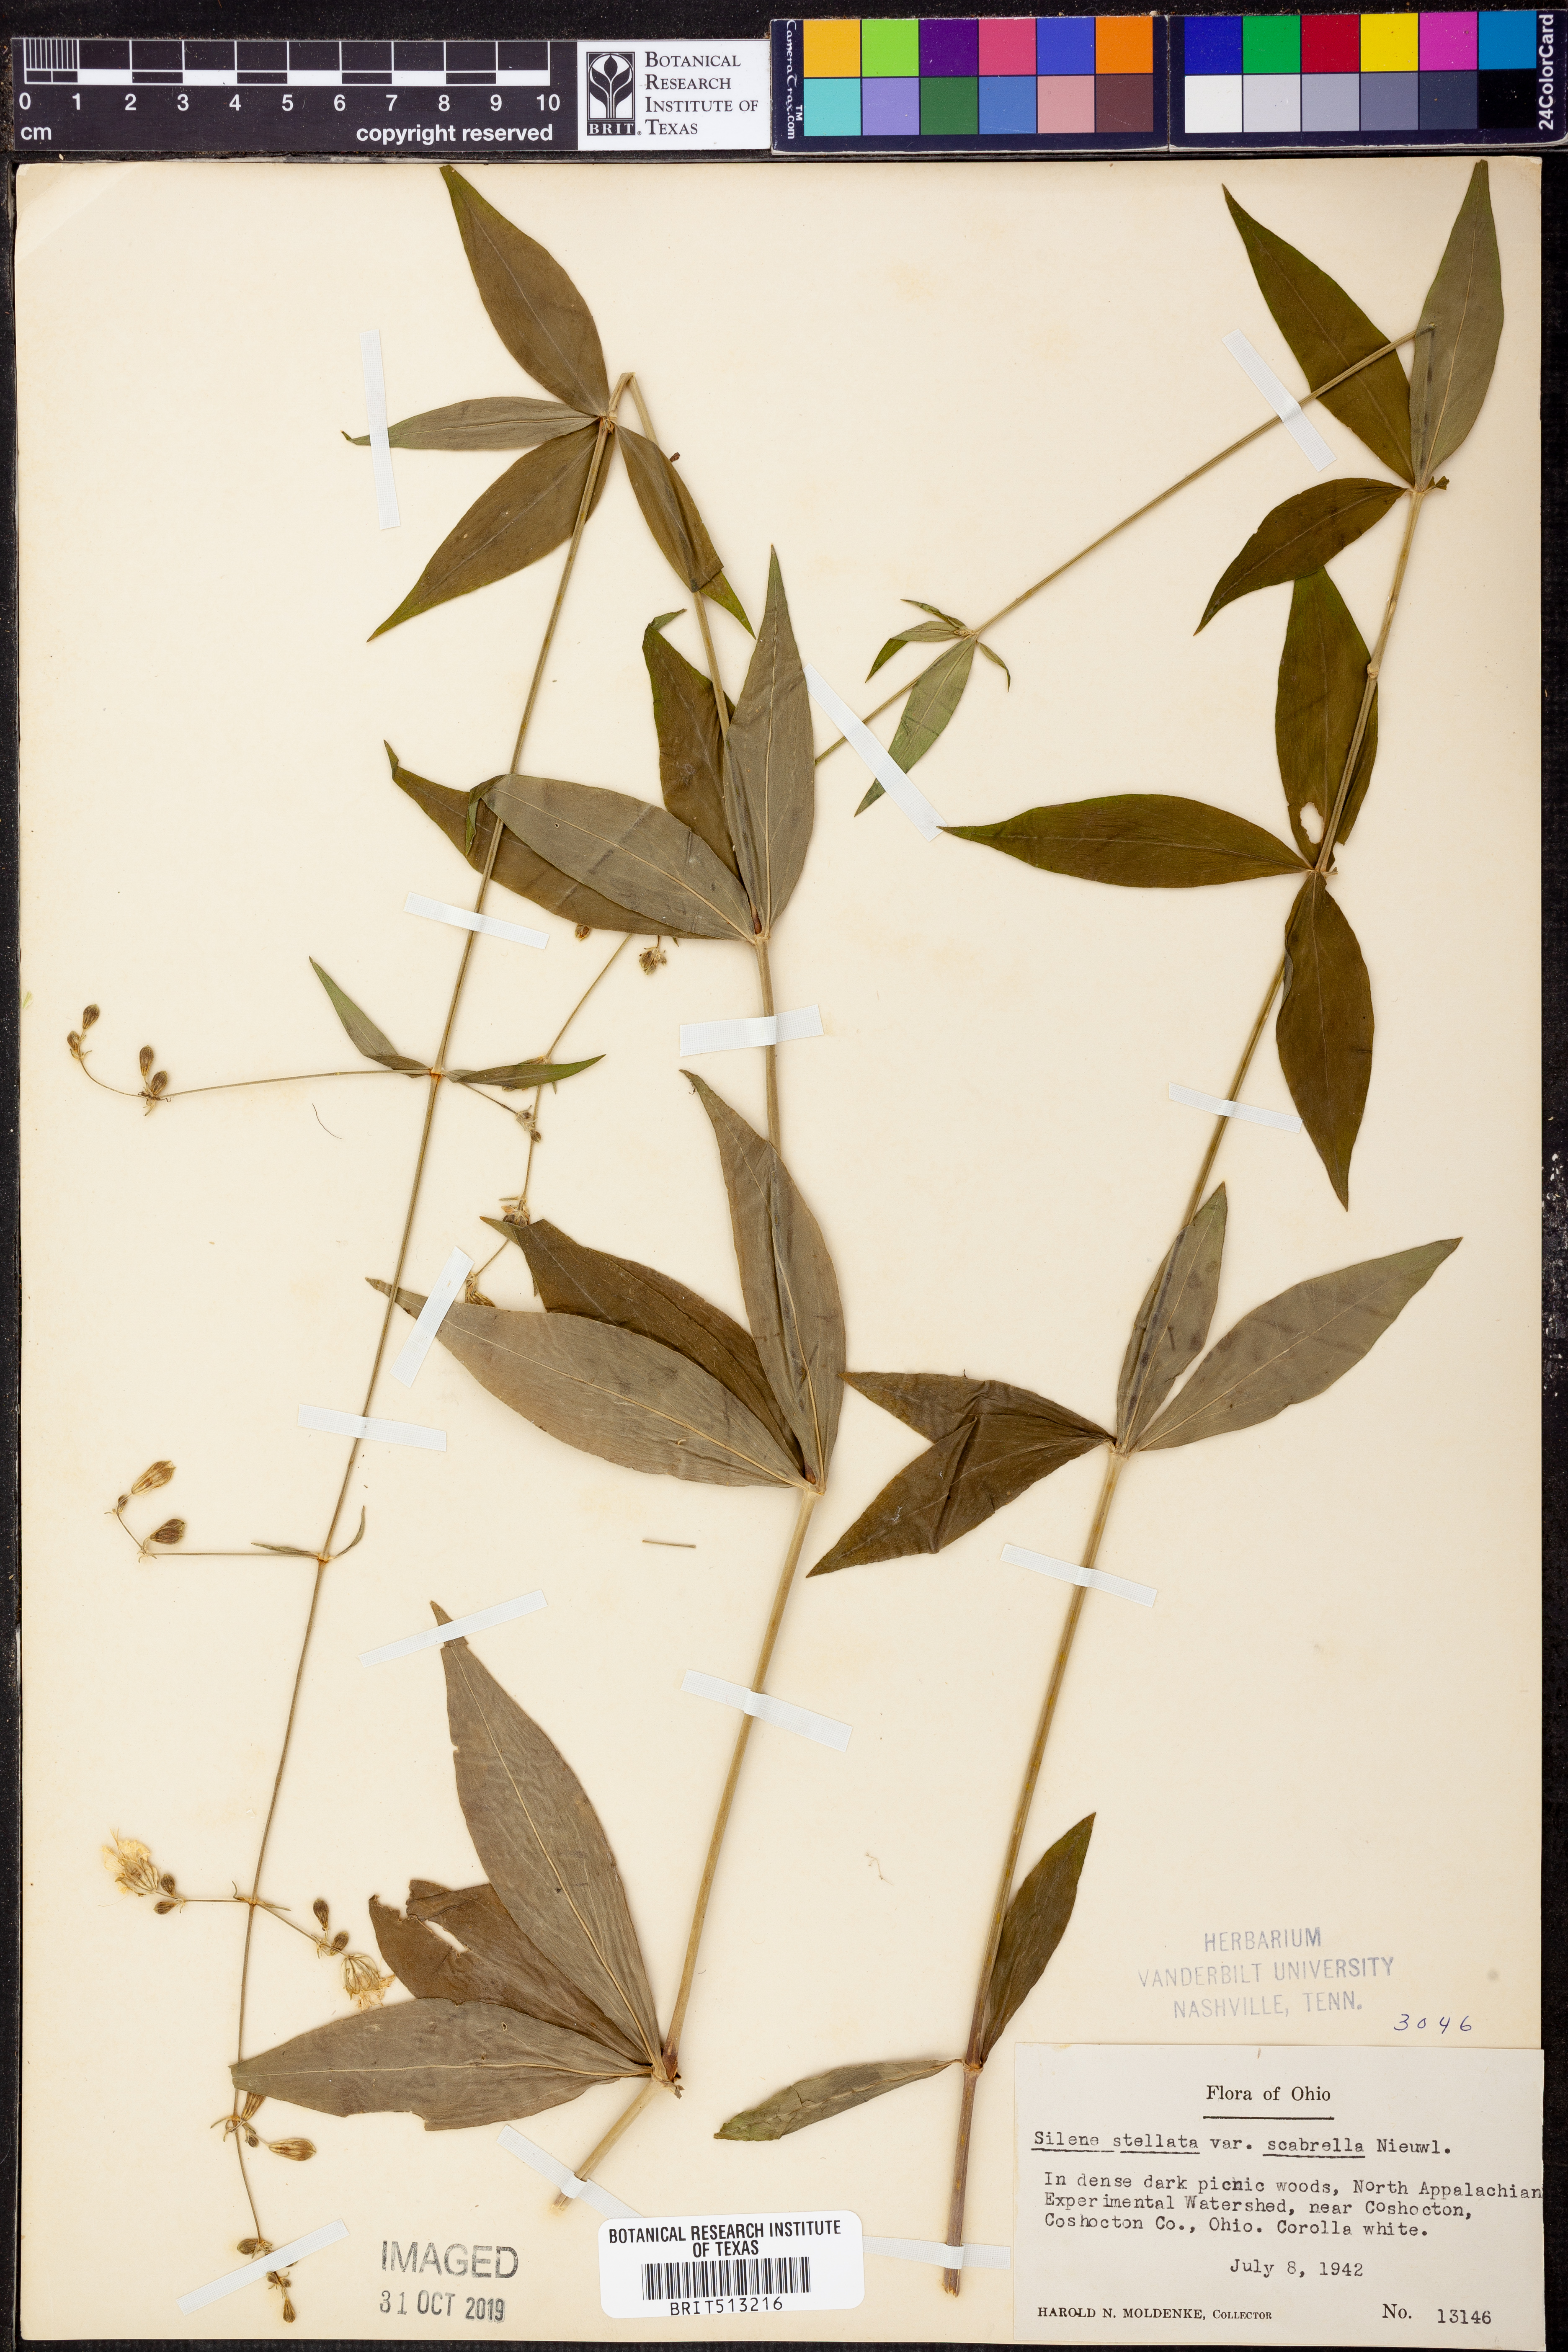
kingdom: Plantae
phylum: Tracheophyta
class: Magnoliopsida
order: Caryophyllales
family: Caryophyllaceae
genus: Silene
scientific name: Silene stellata
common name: Starry campion
